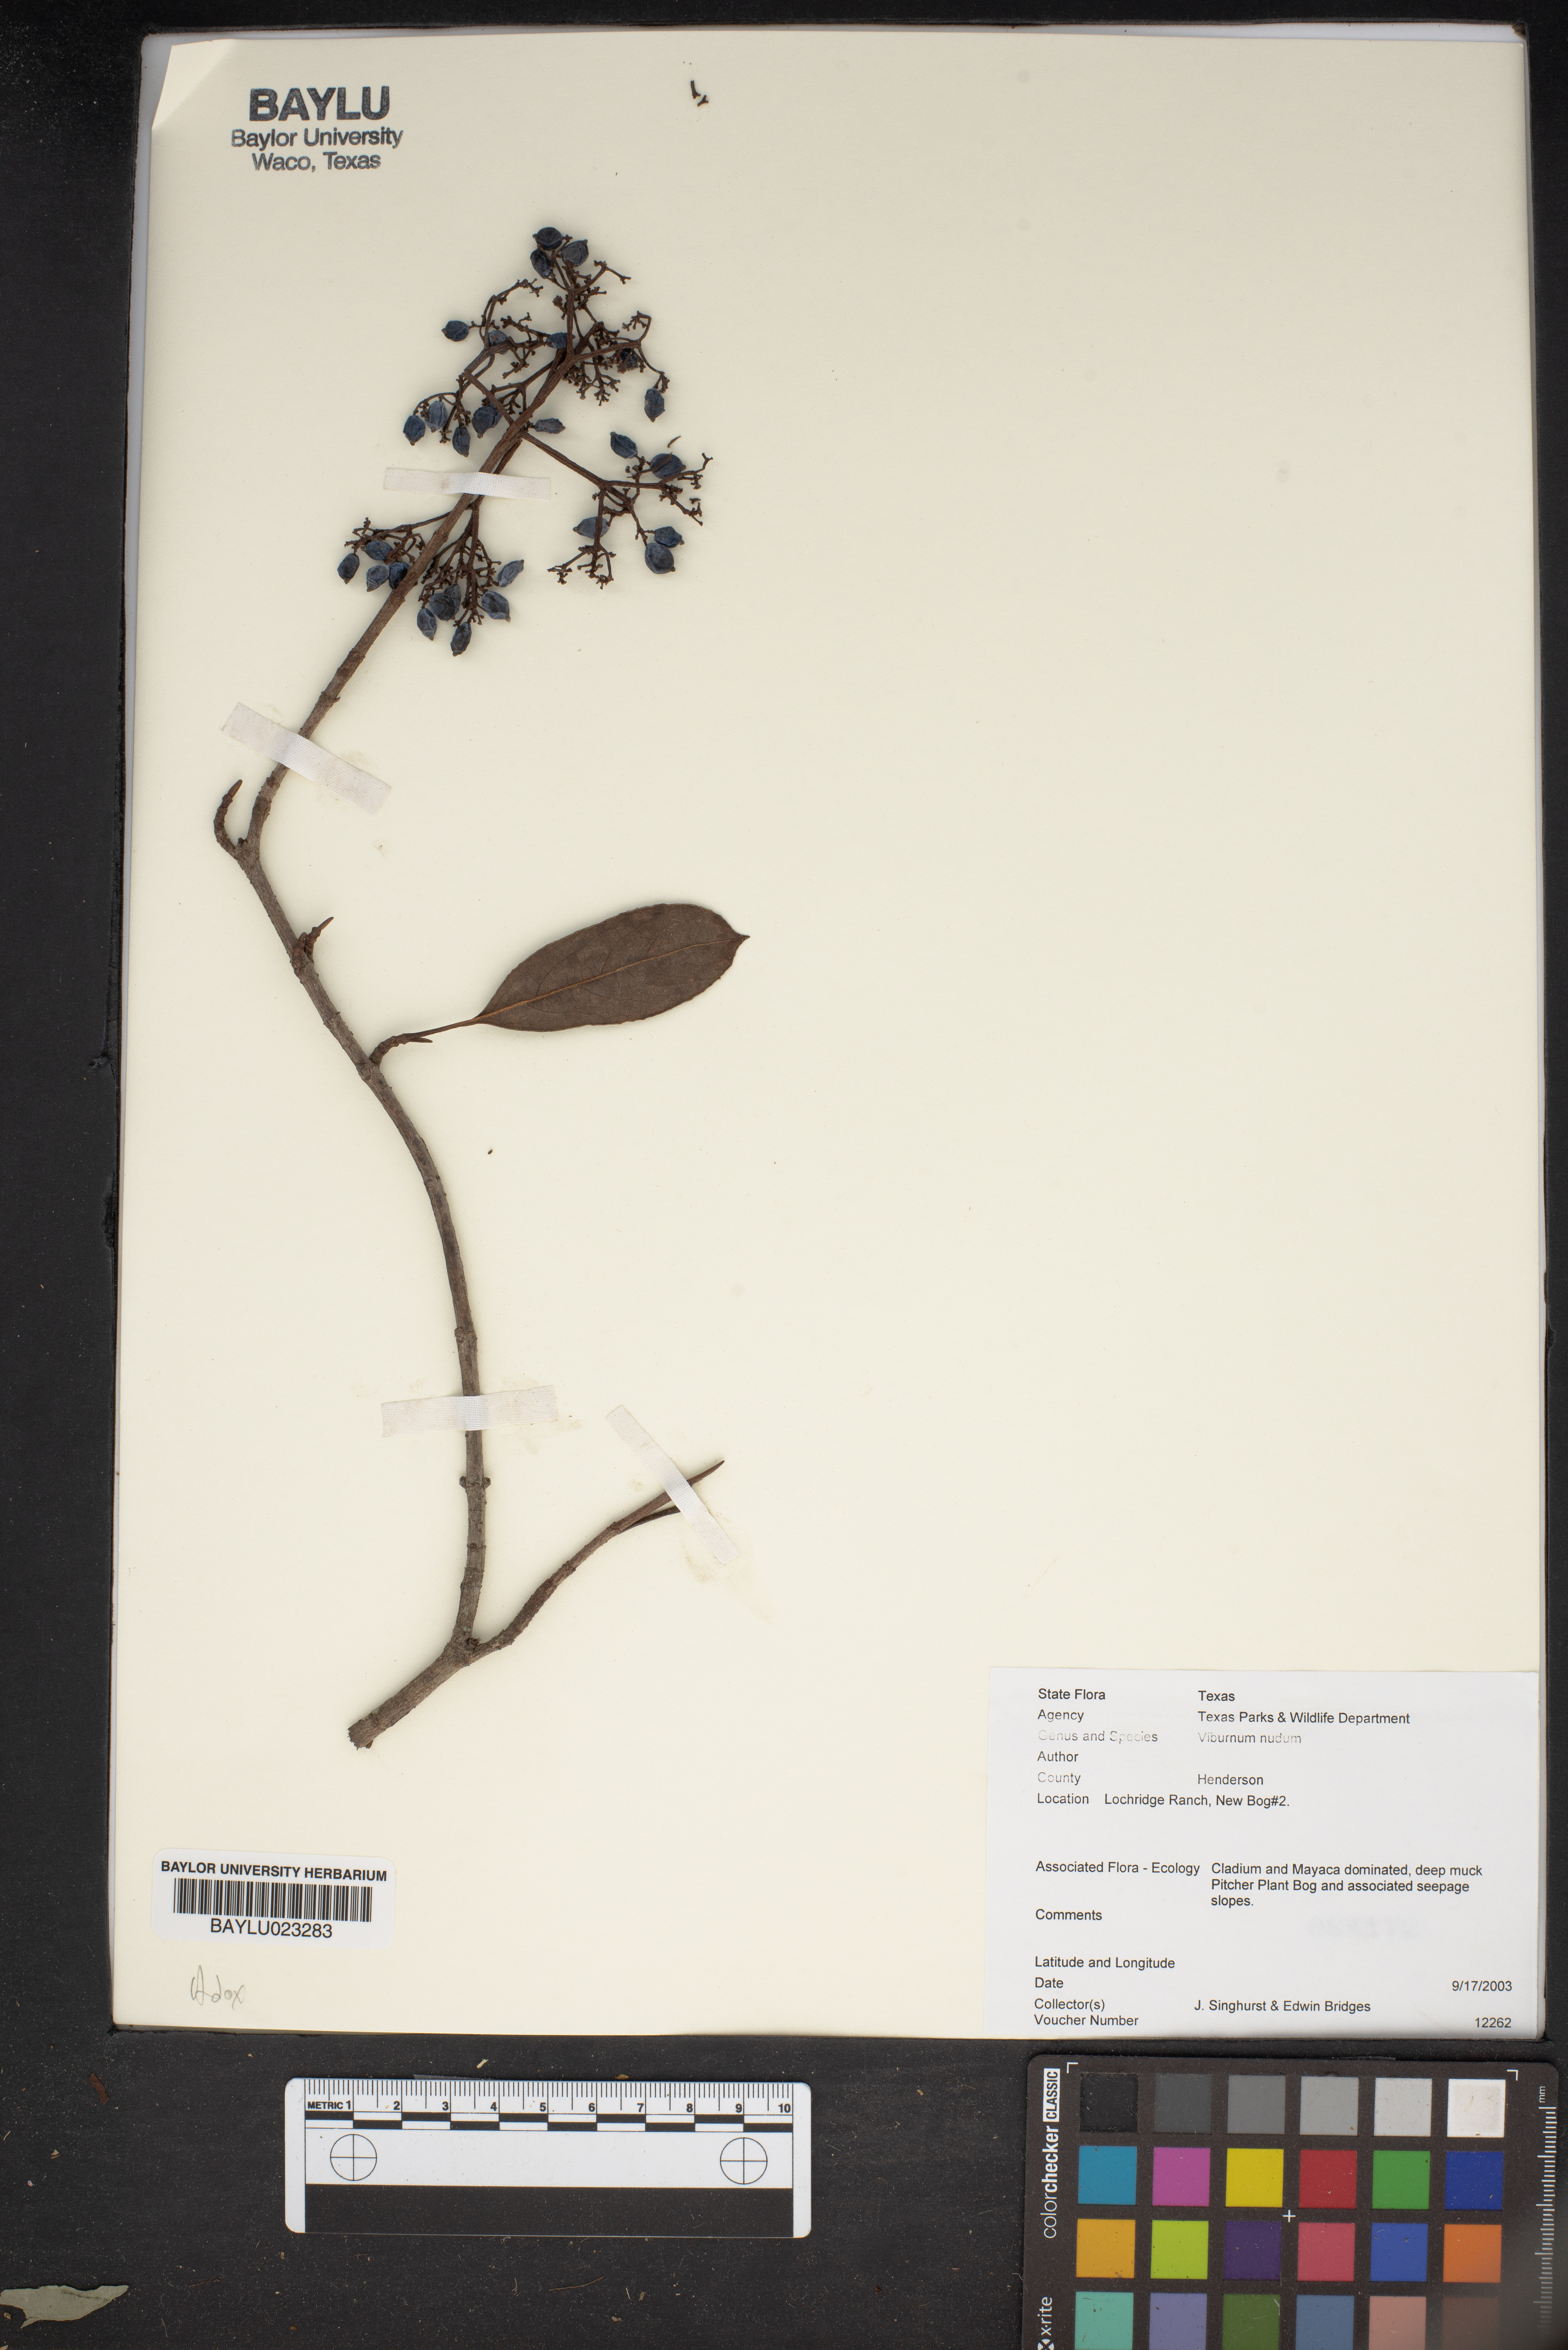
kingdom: Plantae
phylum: Tracheophyta
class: Magnoliopsida
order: Dipsacales
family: Viburnaceae
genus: Viburnum
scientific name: Viburnum nudum
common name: Possum haw
